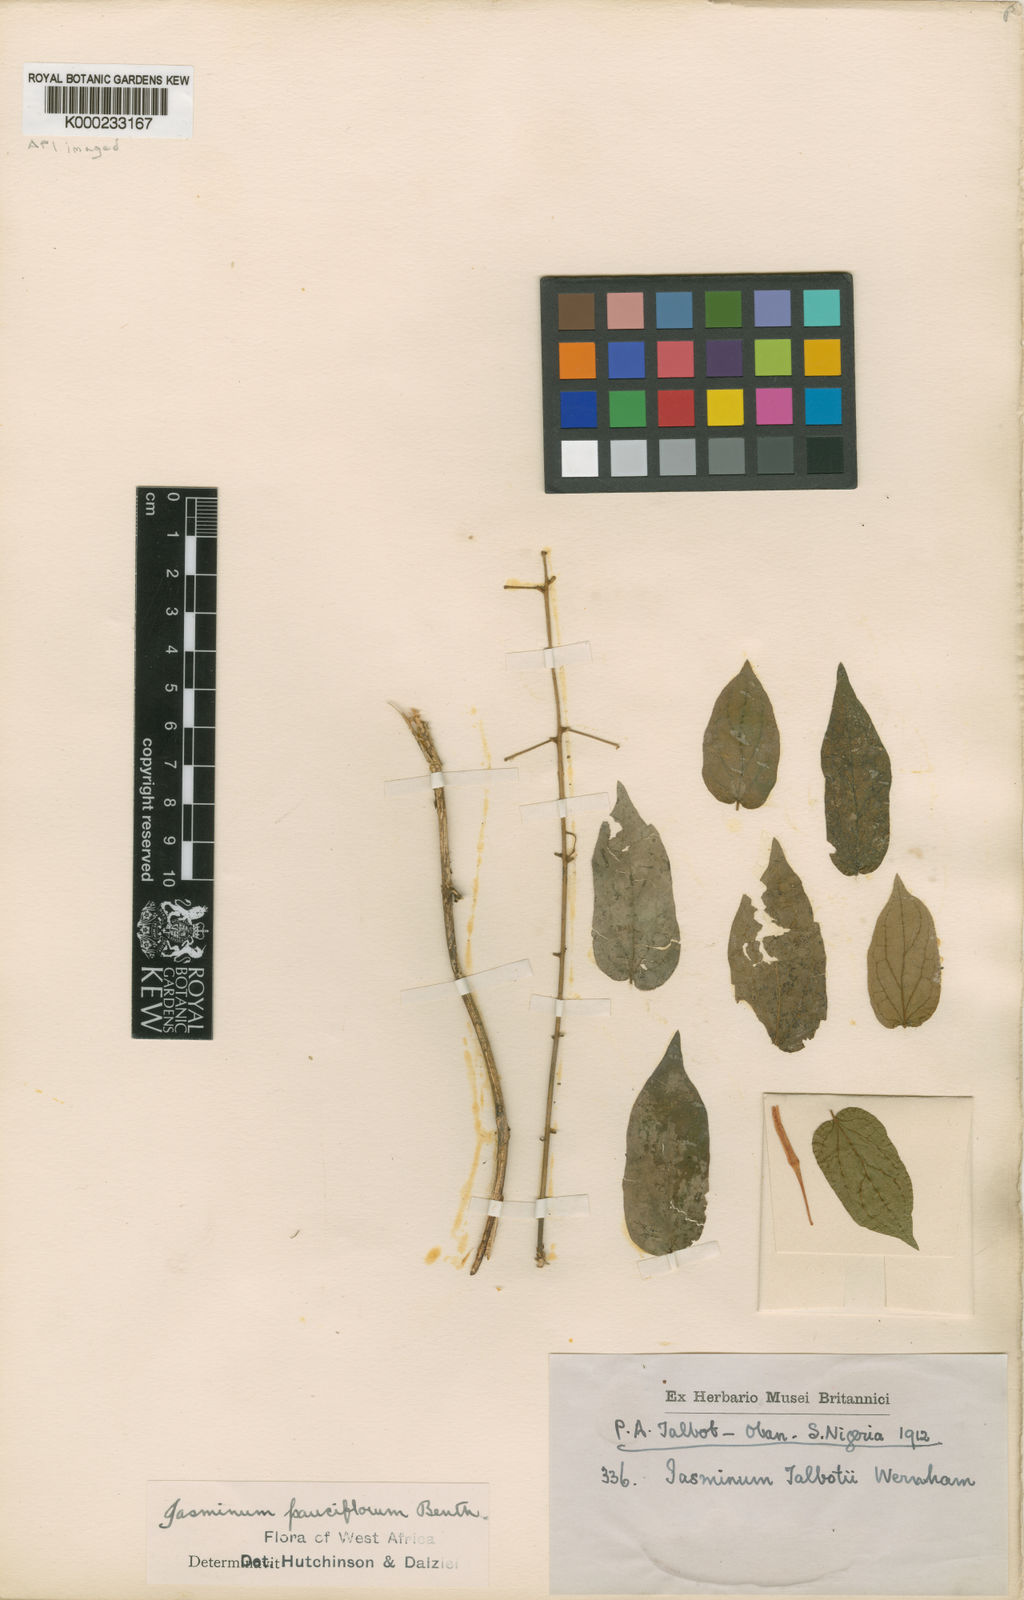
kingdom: Plantae
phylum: Tracheophyta
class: Magnoliopsida
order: Lamiales
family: Oleaceae
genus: Jasminum
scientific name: Jasminum pauciflorum
